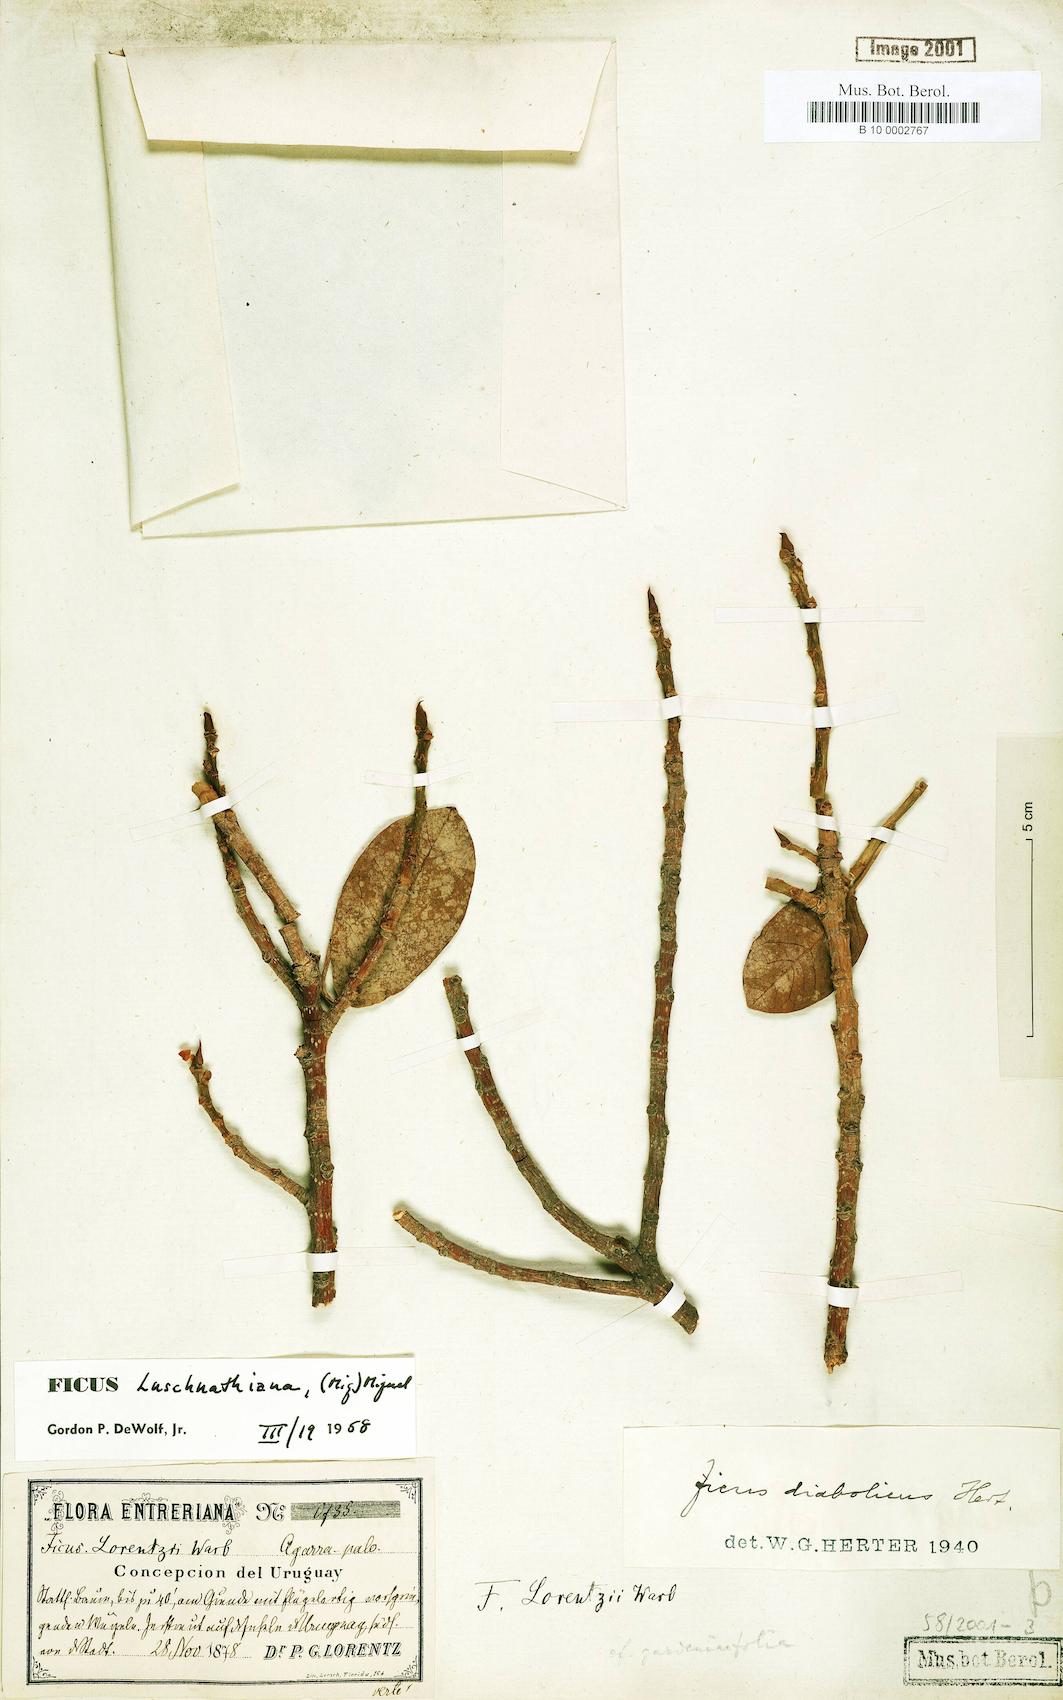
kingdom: Plantae
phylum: Tracheophyta
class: Magnoliopsida
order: Rosales
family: Moraceae
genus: Ficus
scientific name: Ficus luschnathiana
